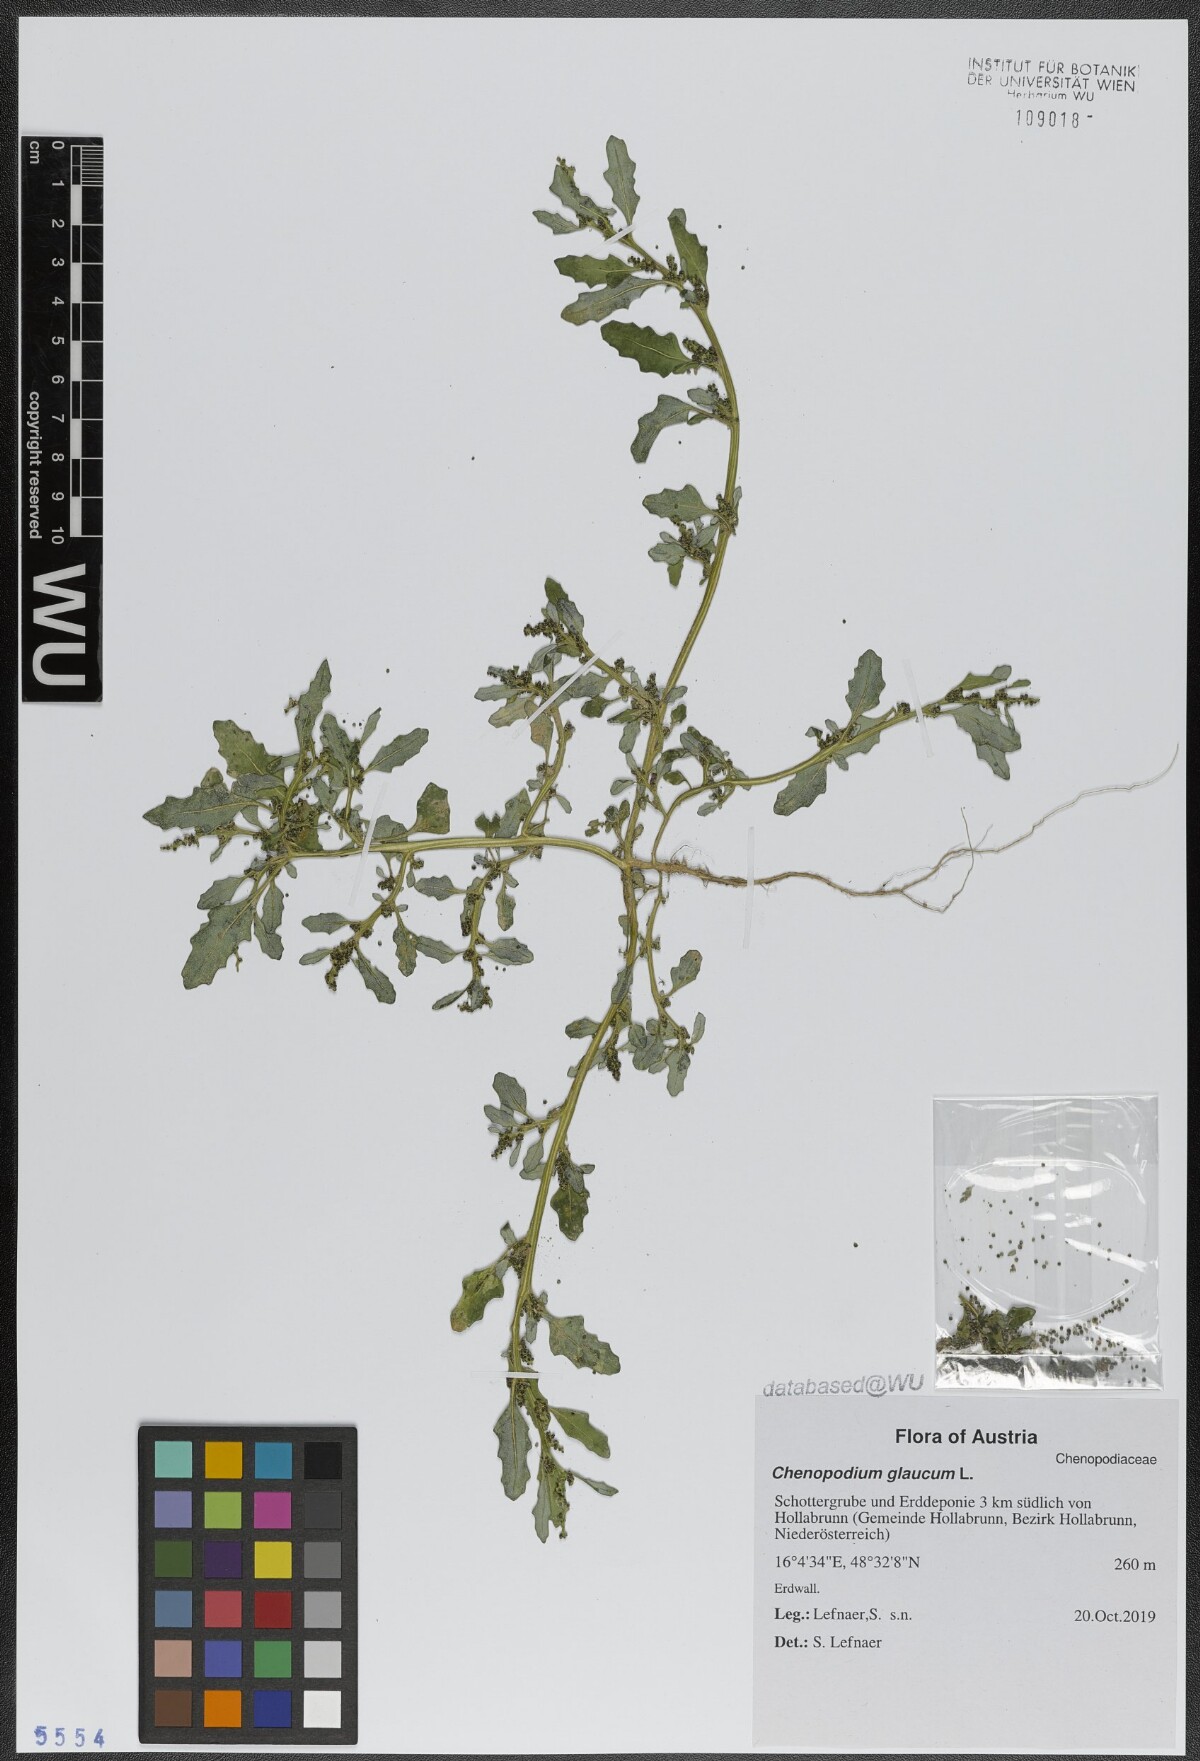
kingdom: Plantae
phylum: Tracheophyta
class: Magnoliopsida
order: Caryophyllales
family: Amaranthaceae
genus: Oxybasis
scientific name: Oxybasis glauca
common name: Glaucous goosefoot
